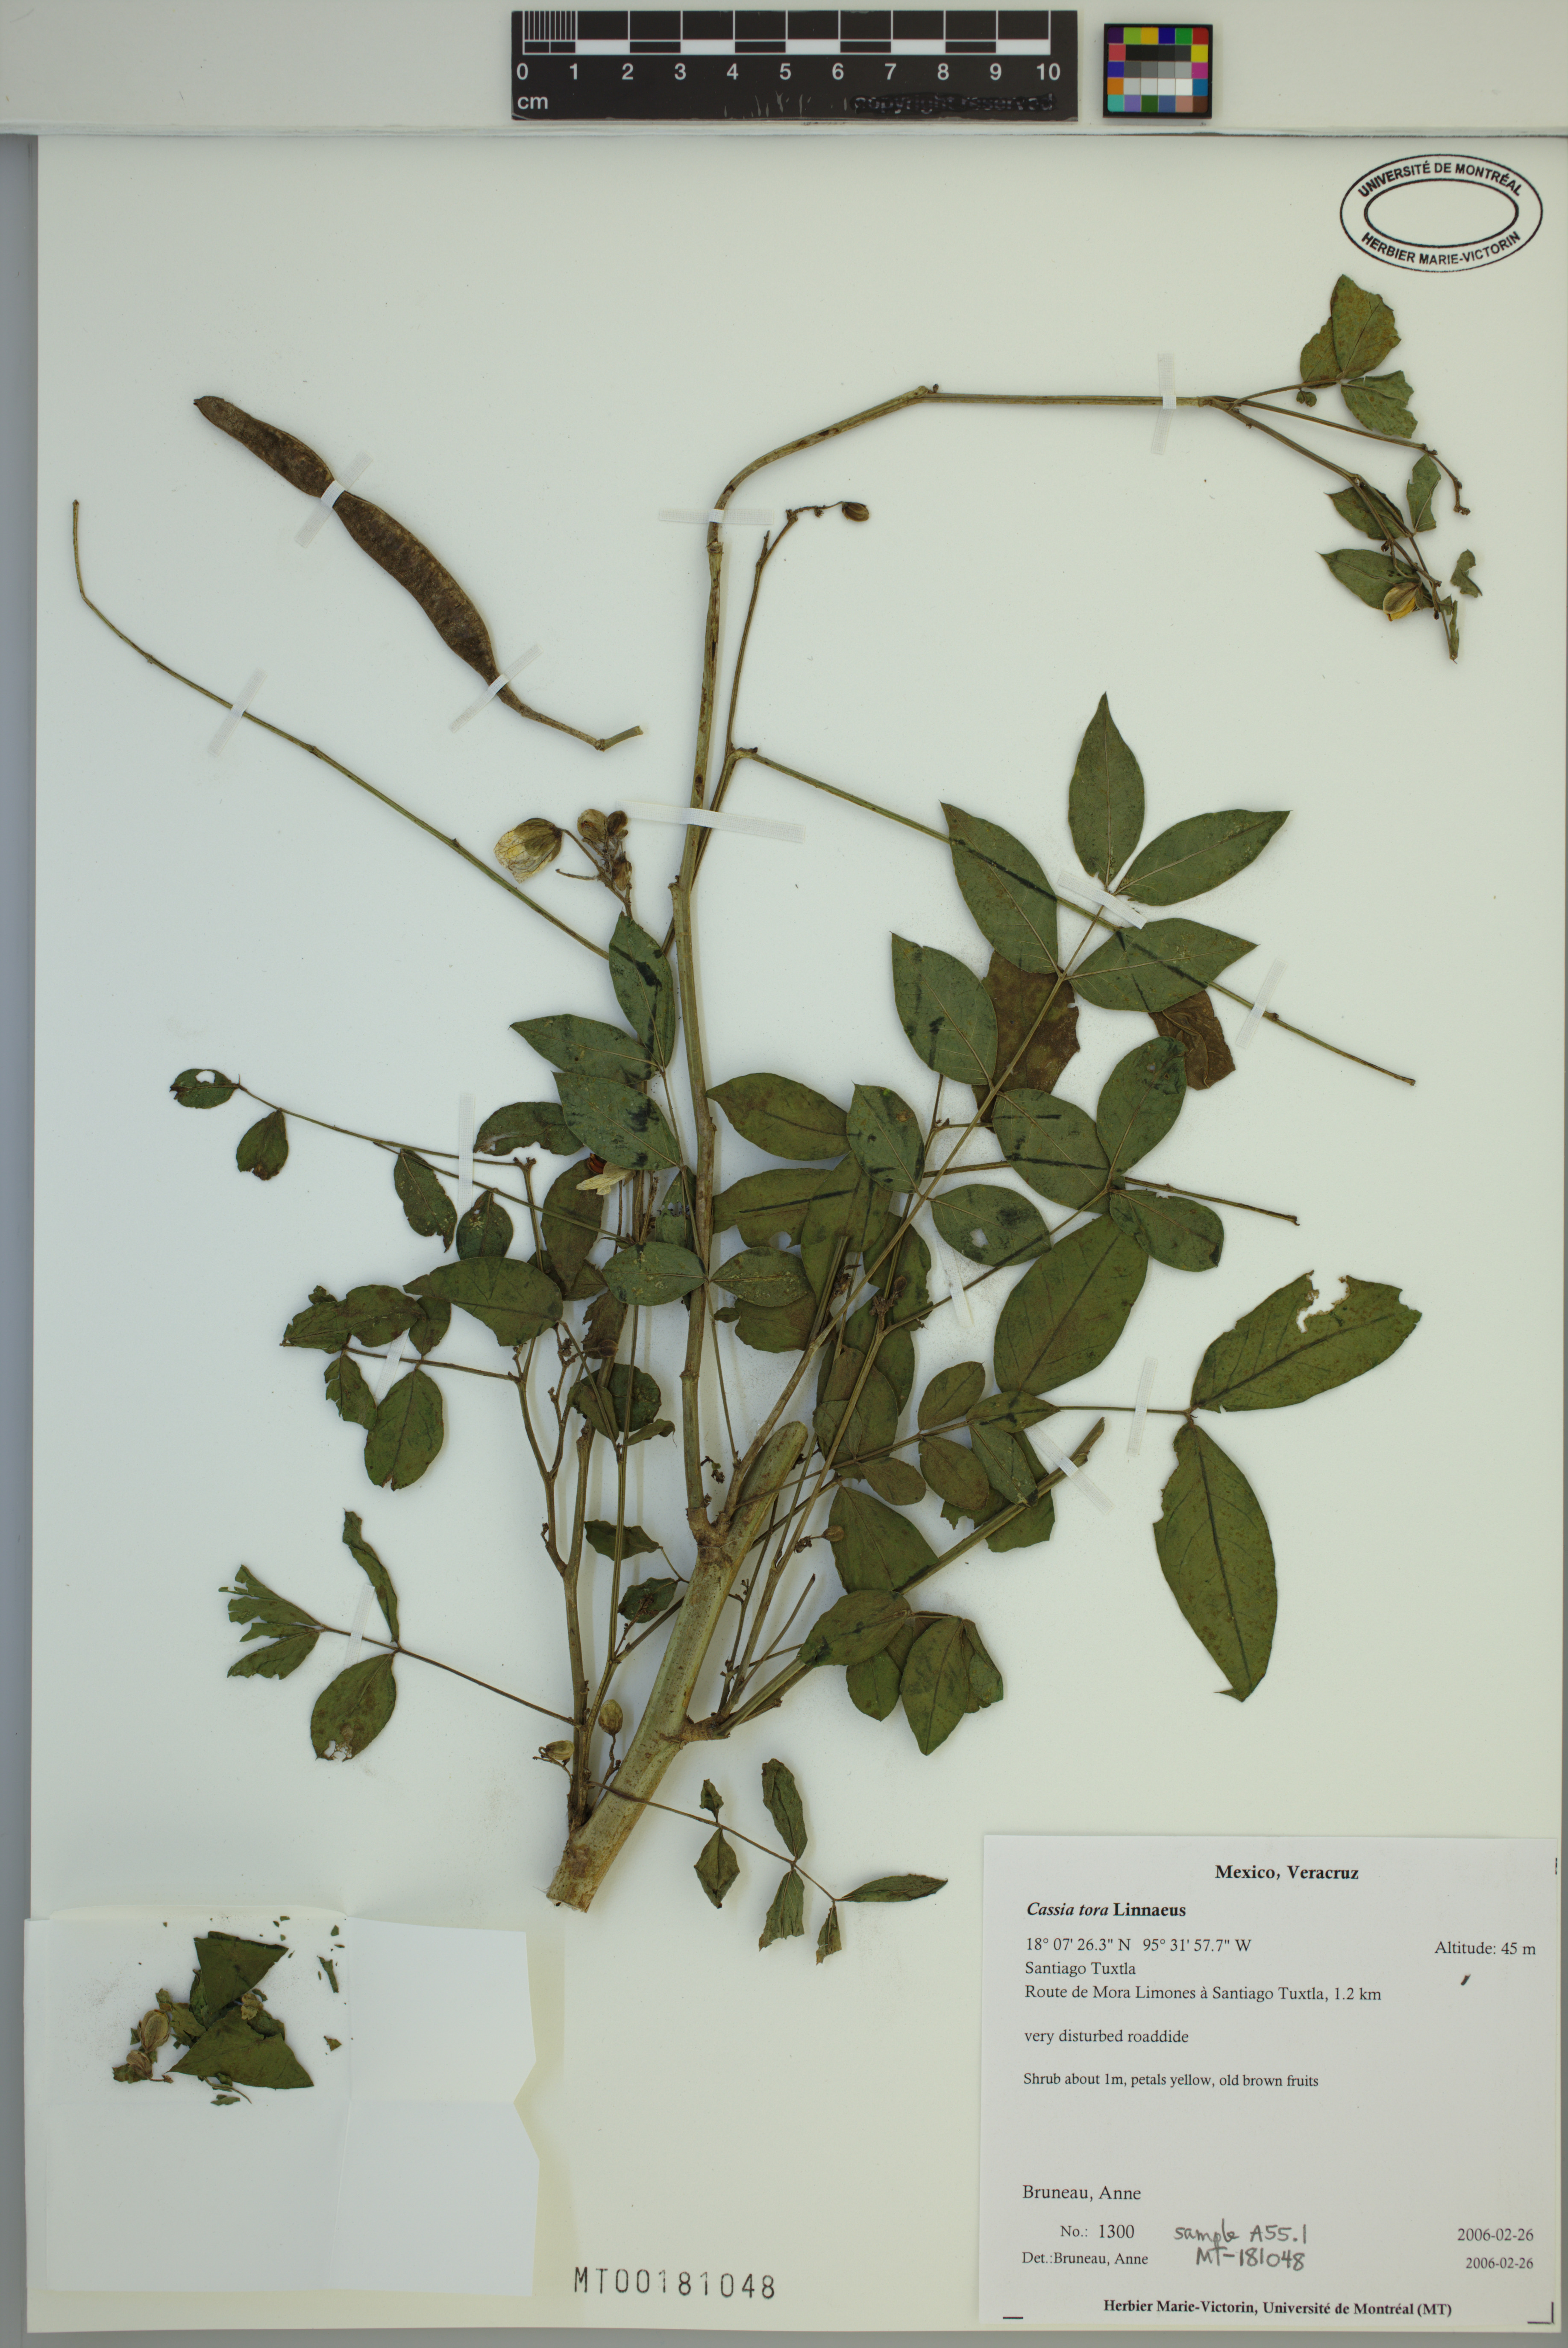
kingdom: Plantae
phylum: Tracheophyta
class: Magnoliopsida
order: Fabales
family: Fabaceae
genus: Senna
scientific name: Senna obtusifolia
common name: Java-bean
